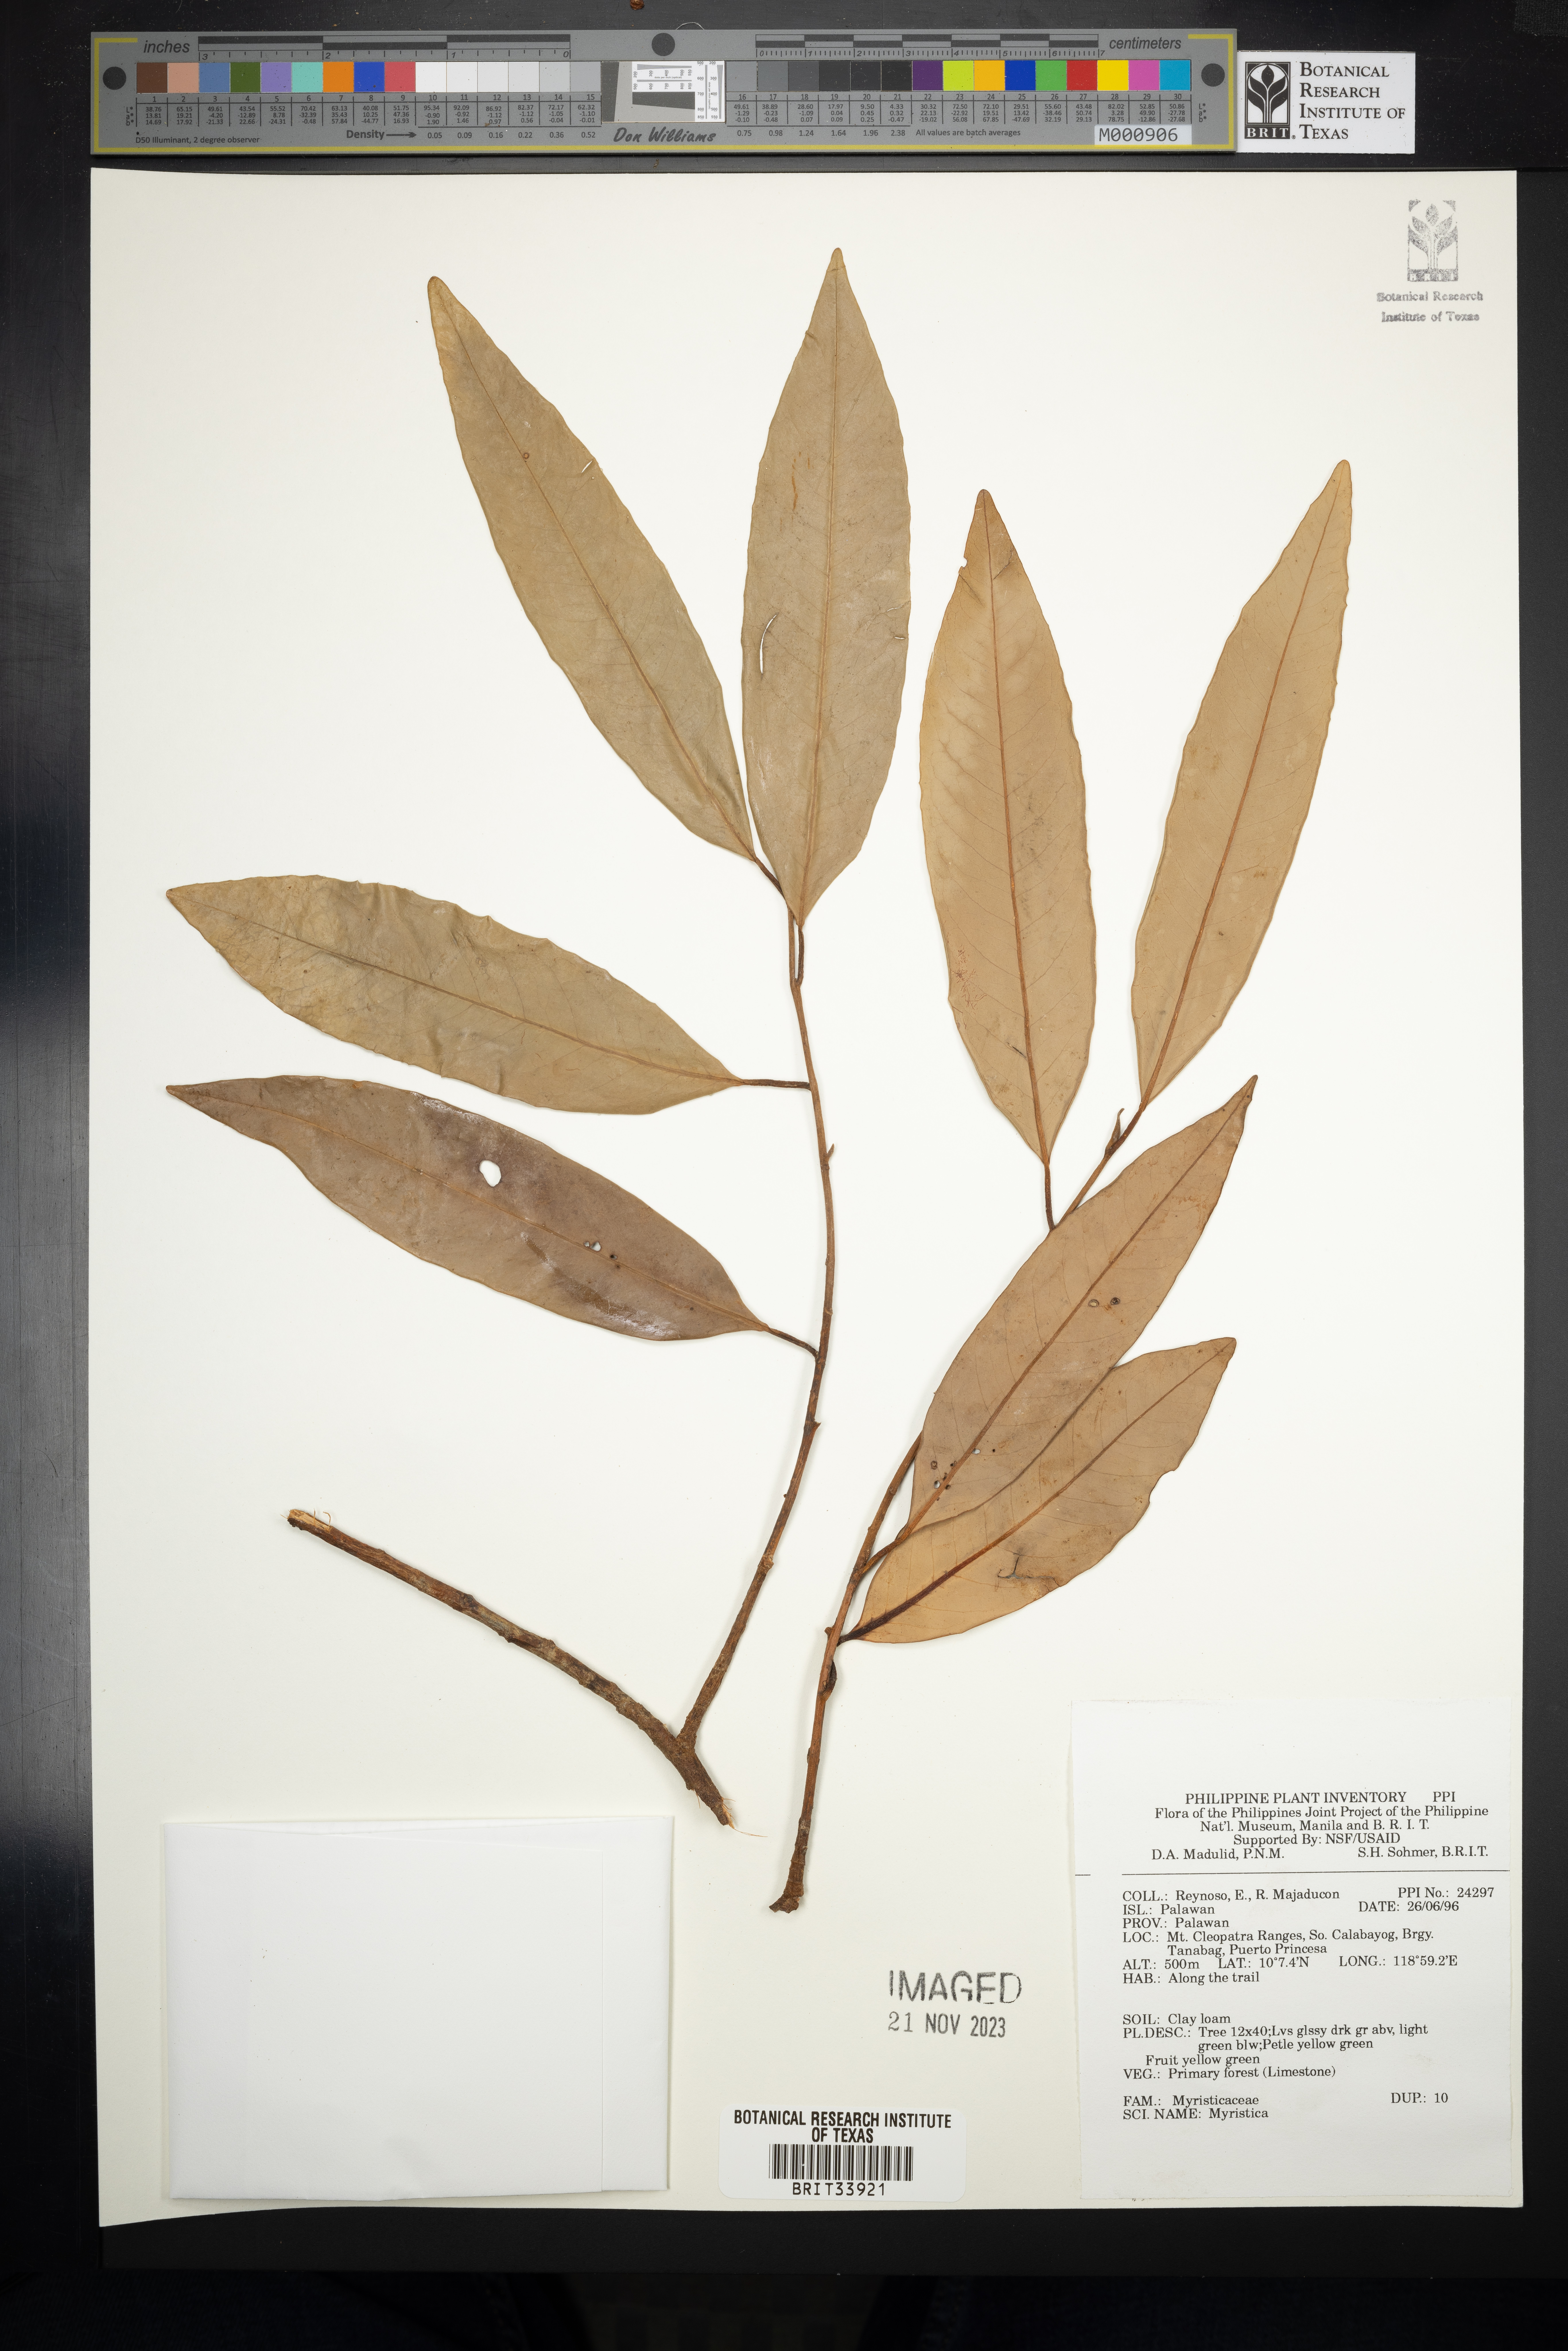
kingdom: Plantae
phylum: Tracheophyta
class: Magnoliopsida
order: Magnoliales
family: Myristicaceae
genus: Myristica
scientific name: Myristica
